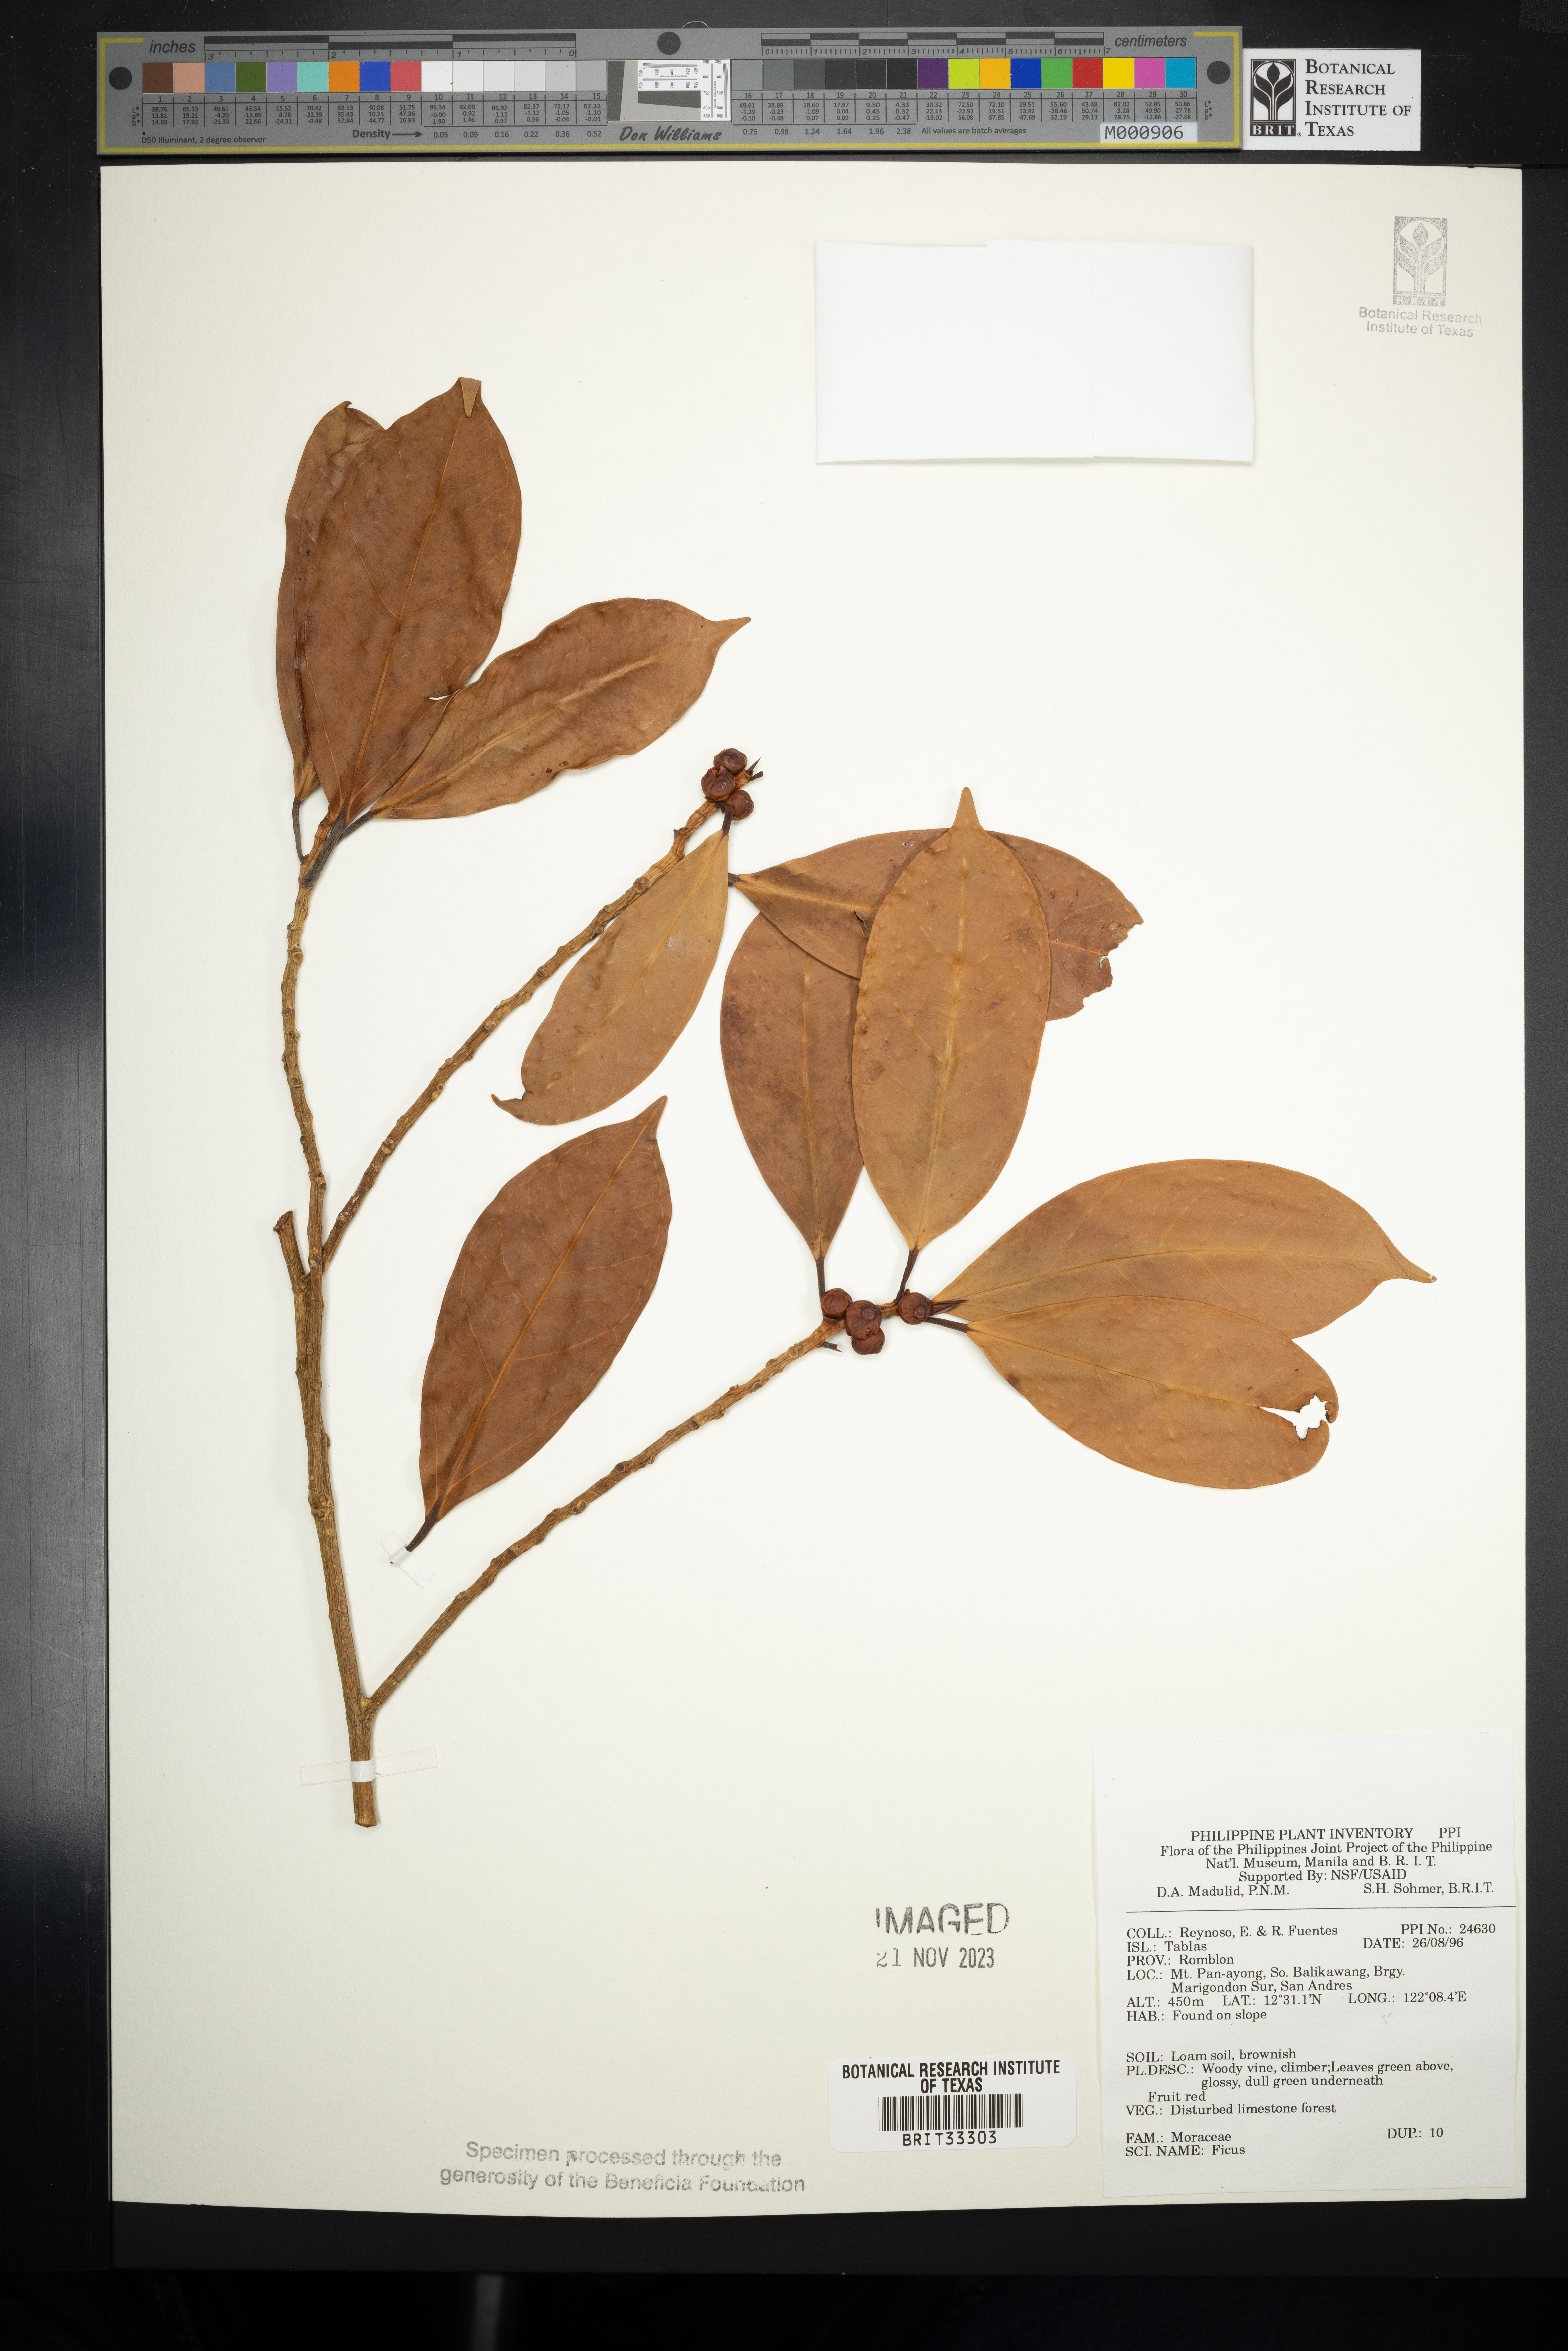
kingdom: Plantae
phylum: Tracheophyta
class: Magnoliopsida
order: Rosales
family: Moraceae
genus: Ficus
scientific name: Ficus
